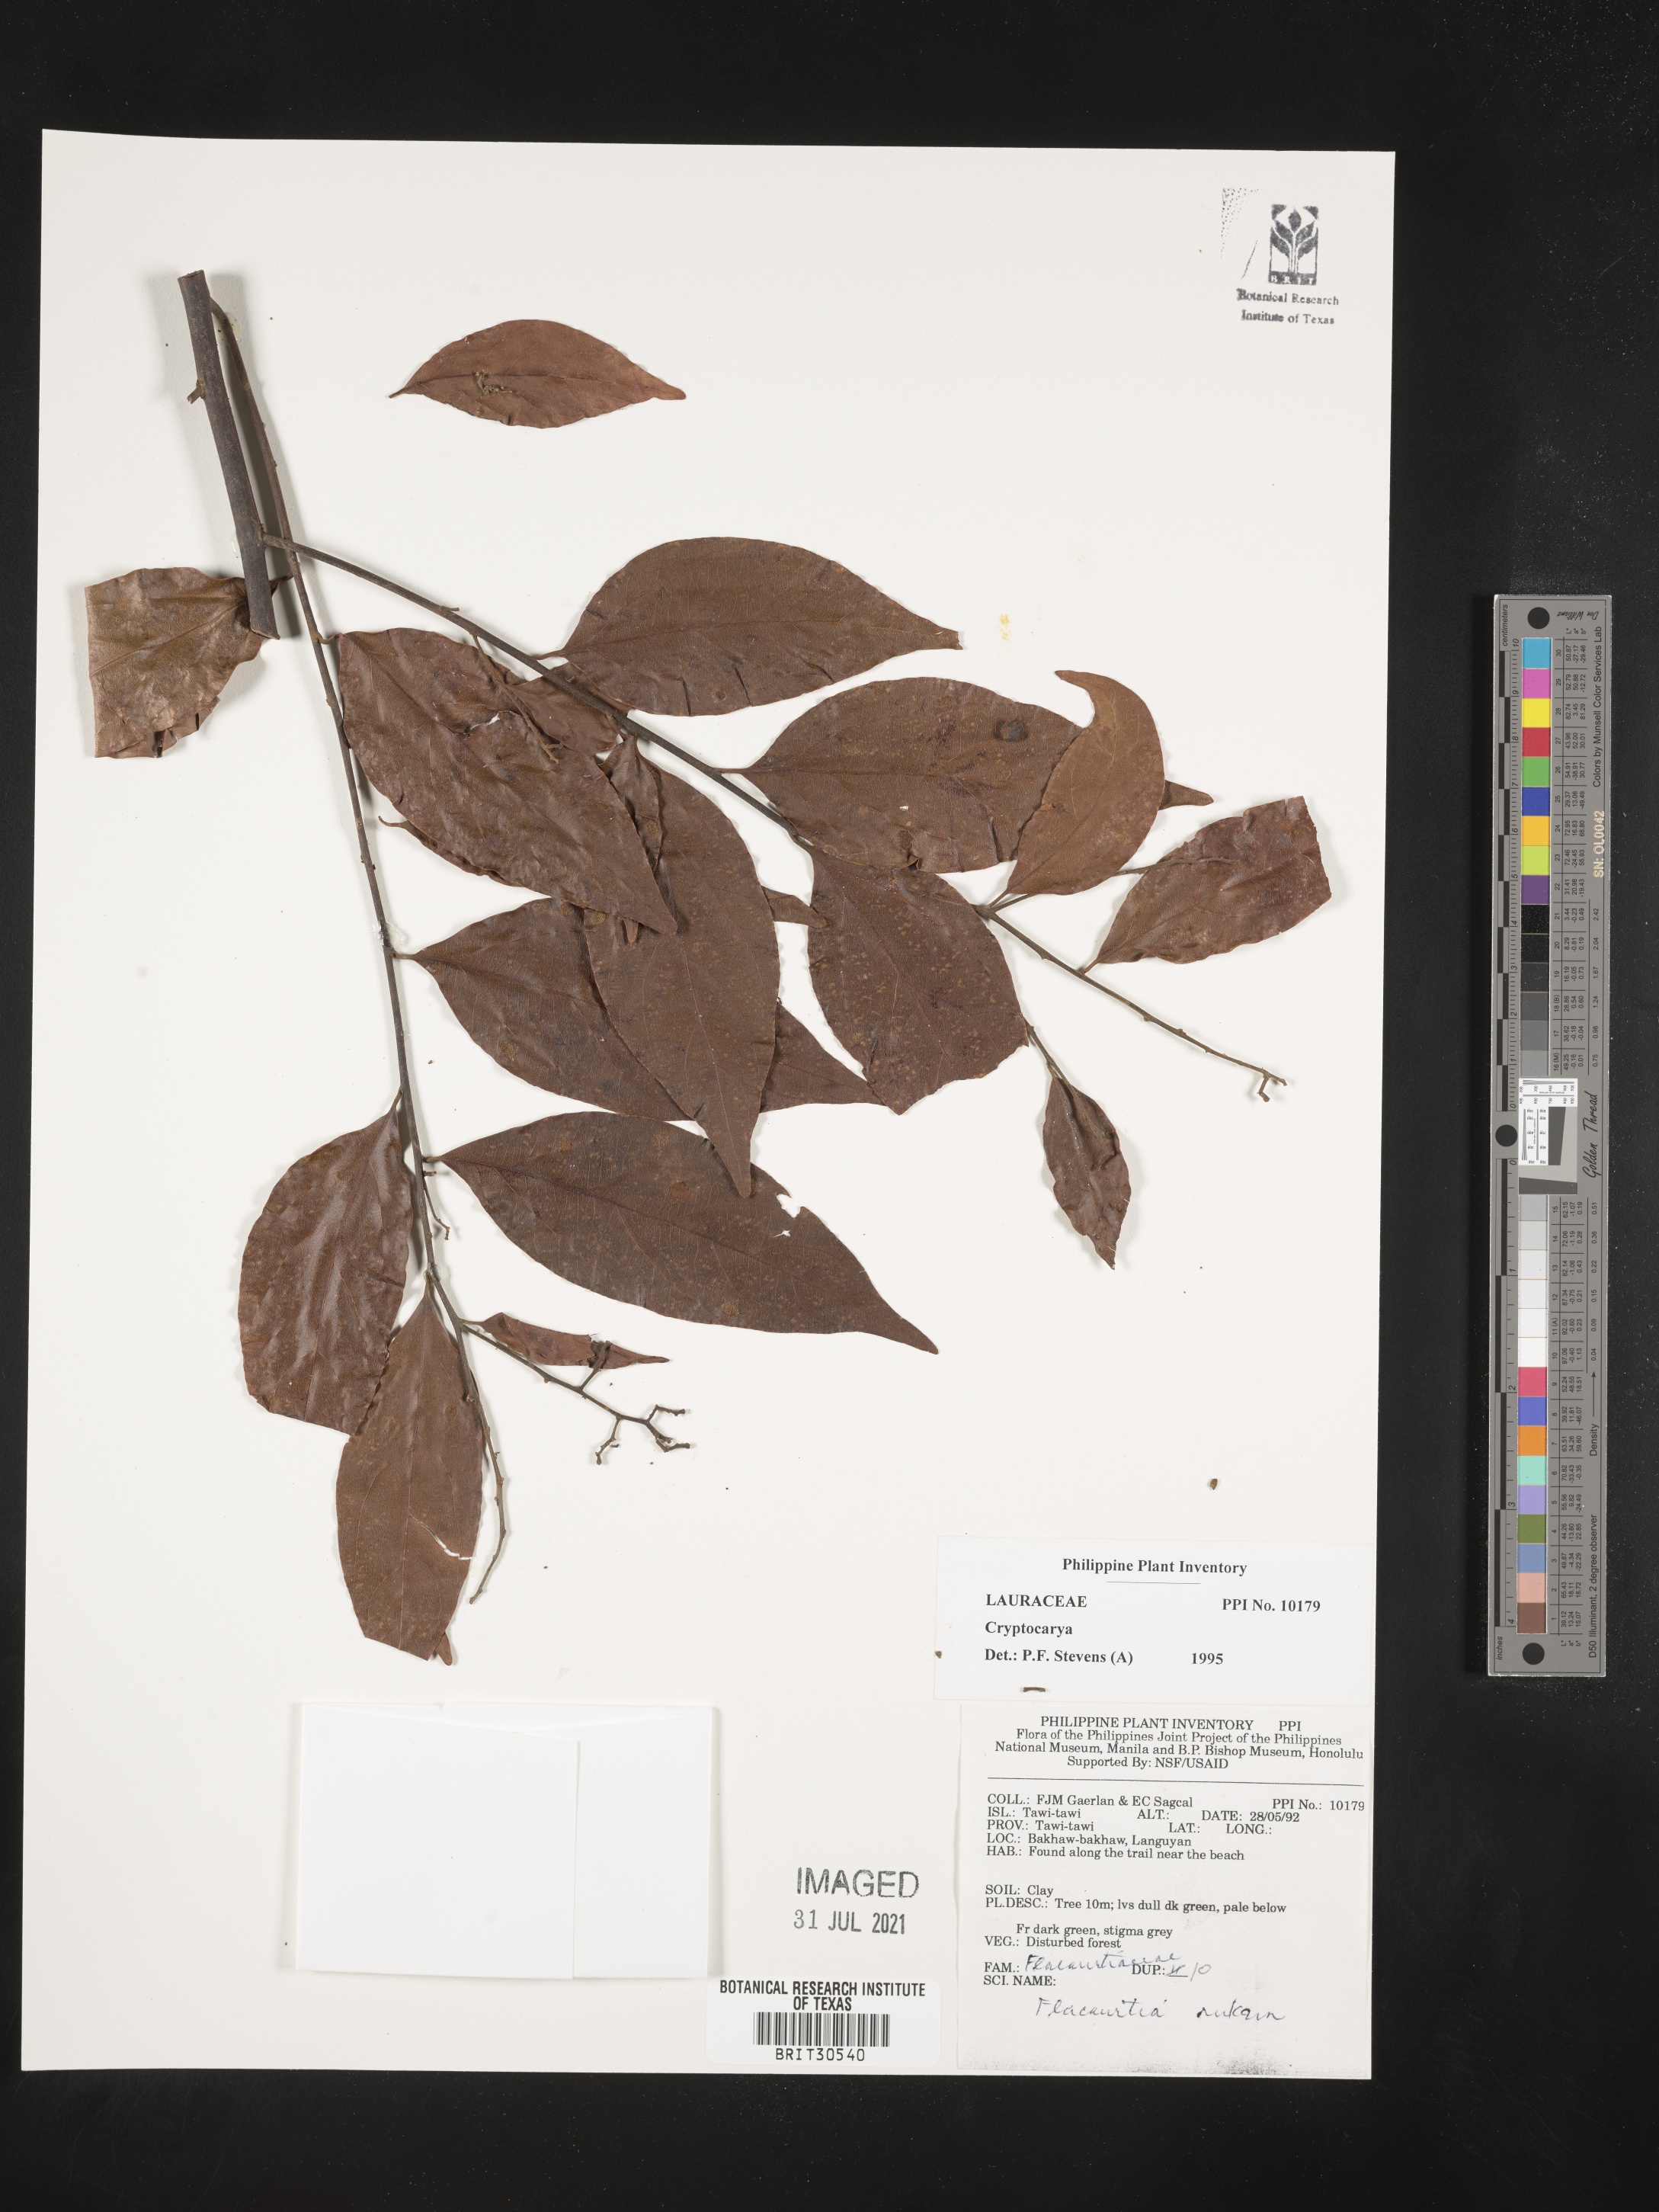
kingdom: Plantae
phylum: Tracheophyta
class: Magnoliopsida
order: Laurales
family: Lauraceae
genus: Cryptocarya
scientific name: Cryptocarya
